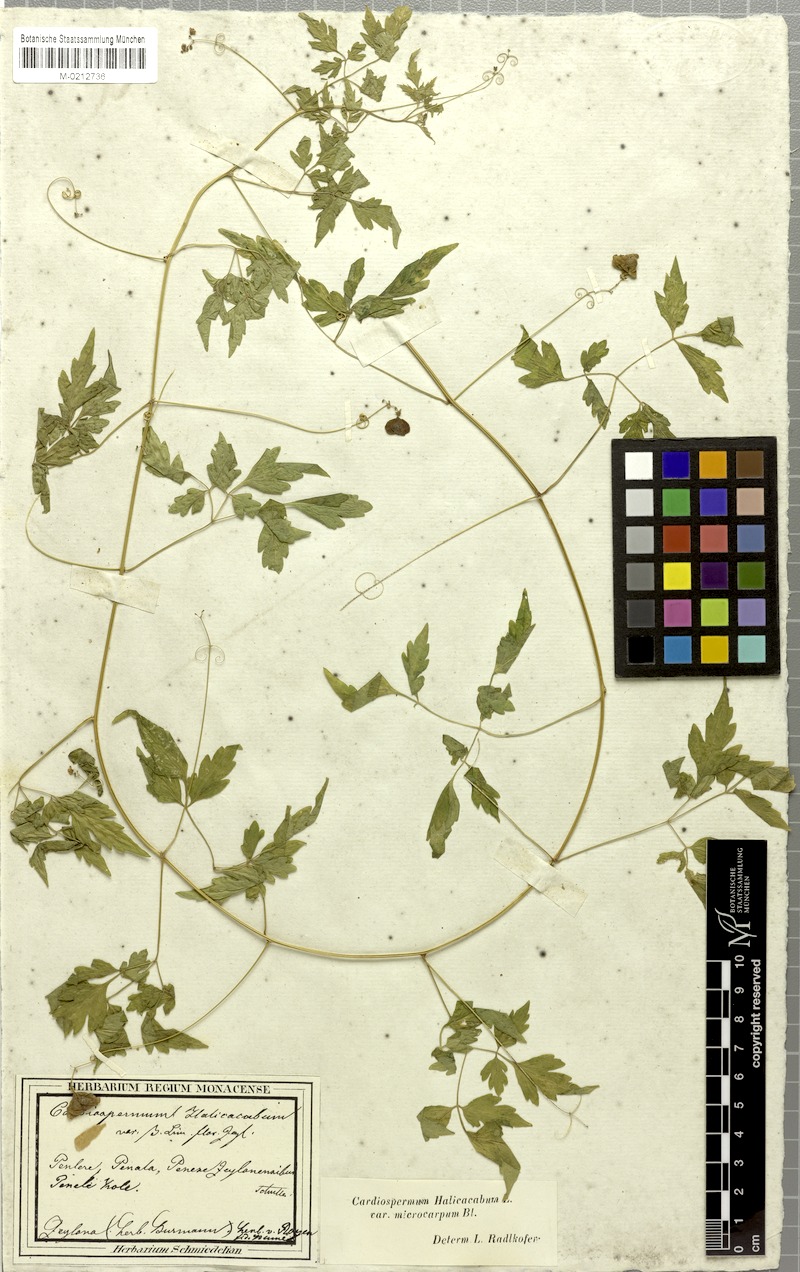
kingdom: Plantae
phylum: Tracheophyta
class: Magnoliopsida
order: Sapindales
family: Sapindaceae
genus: Cardiospermum
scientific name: Cardiospermum microcarpum
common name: Heart seed
